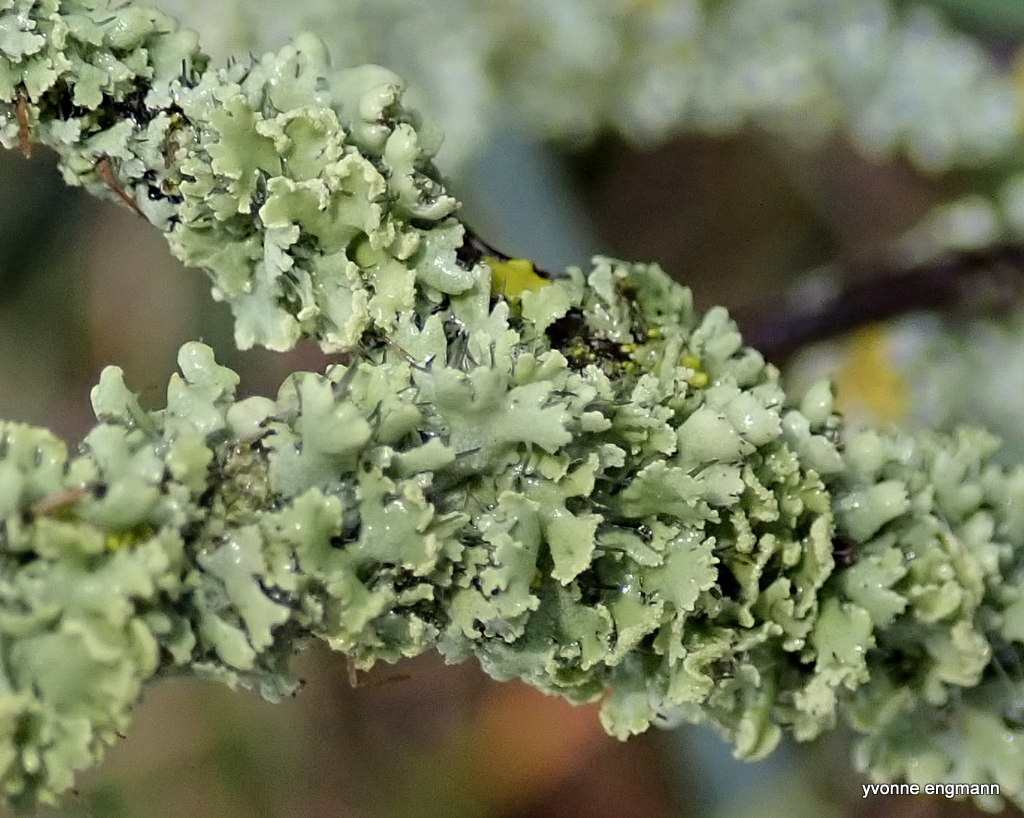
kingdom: Fungi
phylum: Ascomycota
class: Lecanoromycetes
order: Caliciales
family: Physciaceae
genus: Physcia
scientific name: Physcia tenella
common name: spæd rosetlav
